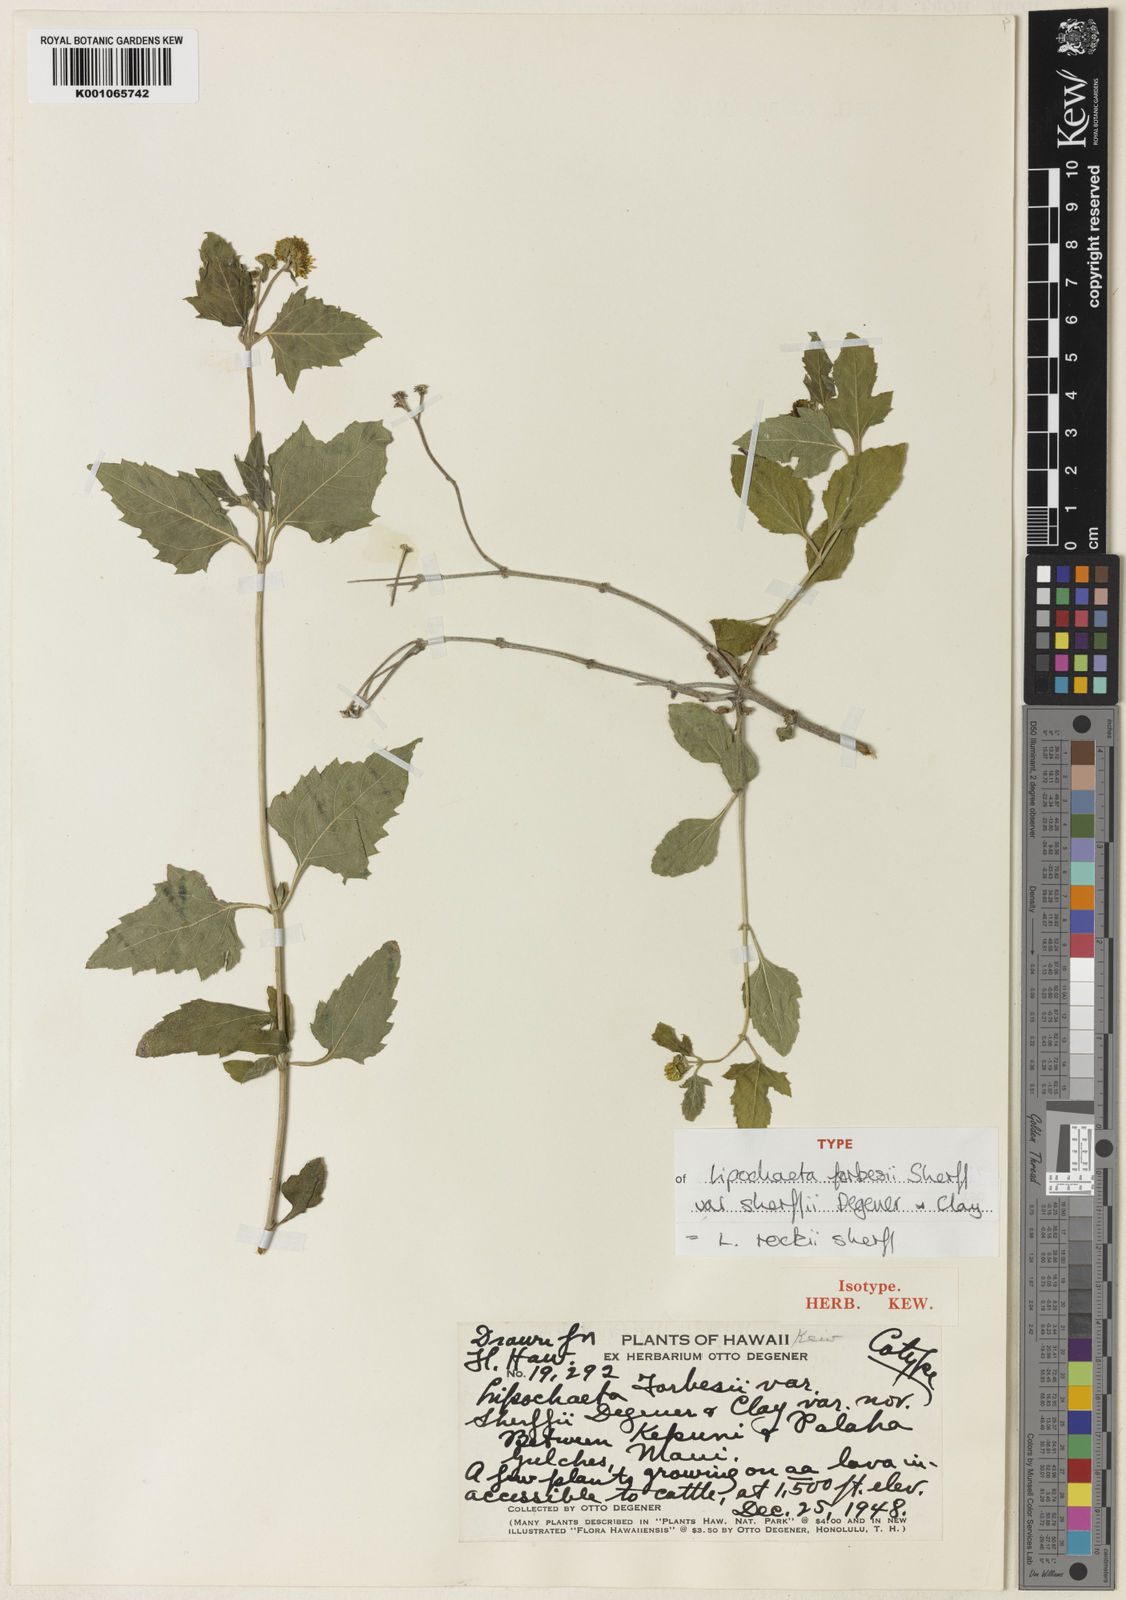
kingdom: Plantae
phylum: Tracheophyta
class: Magnoliopsida
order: Asterales
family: Asteraceae
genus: Lipochaeta
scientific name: Lipochaeta rockii
